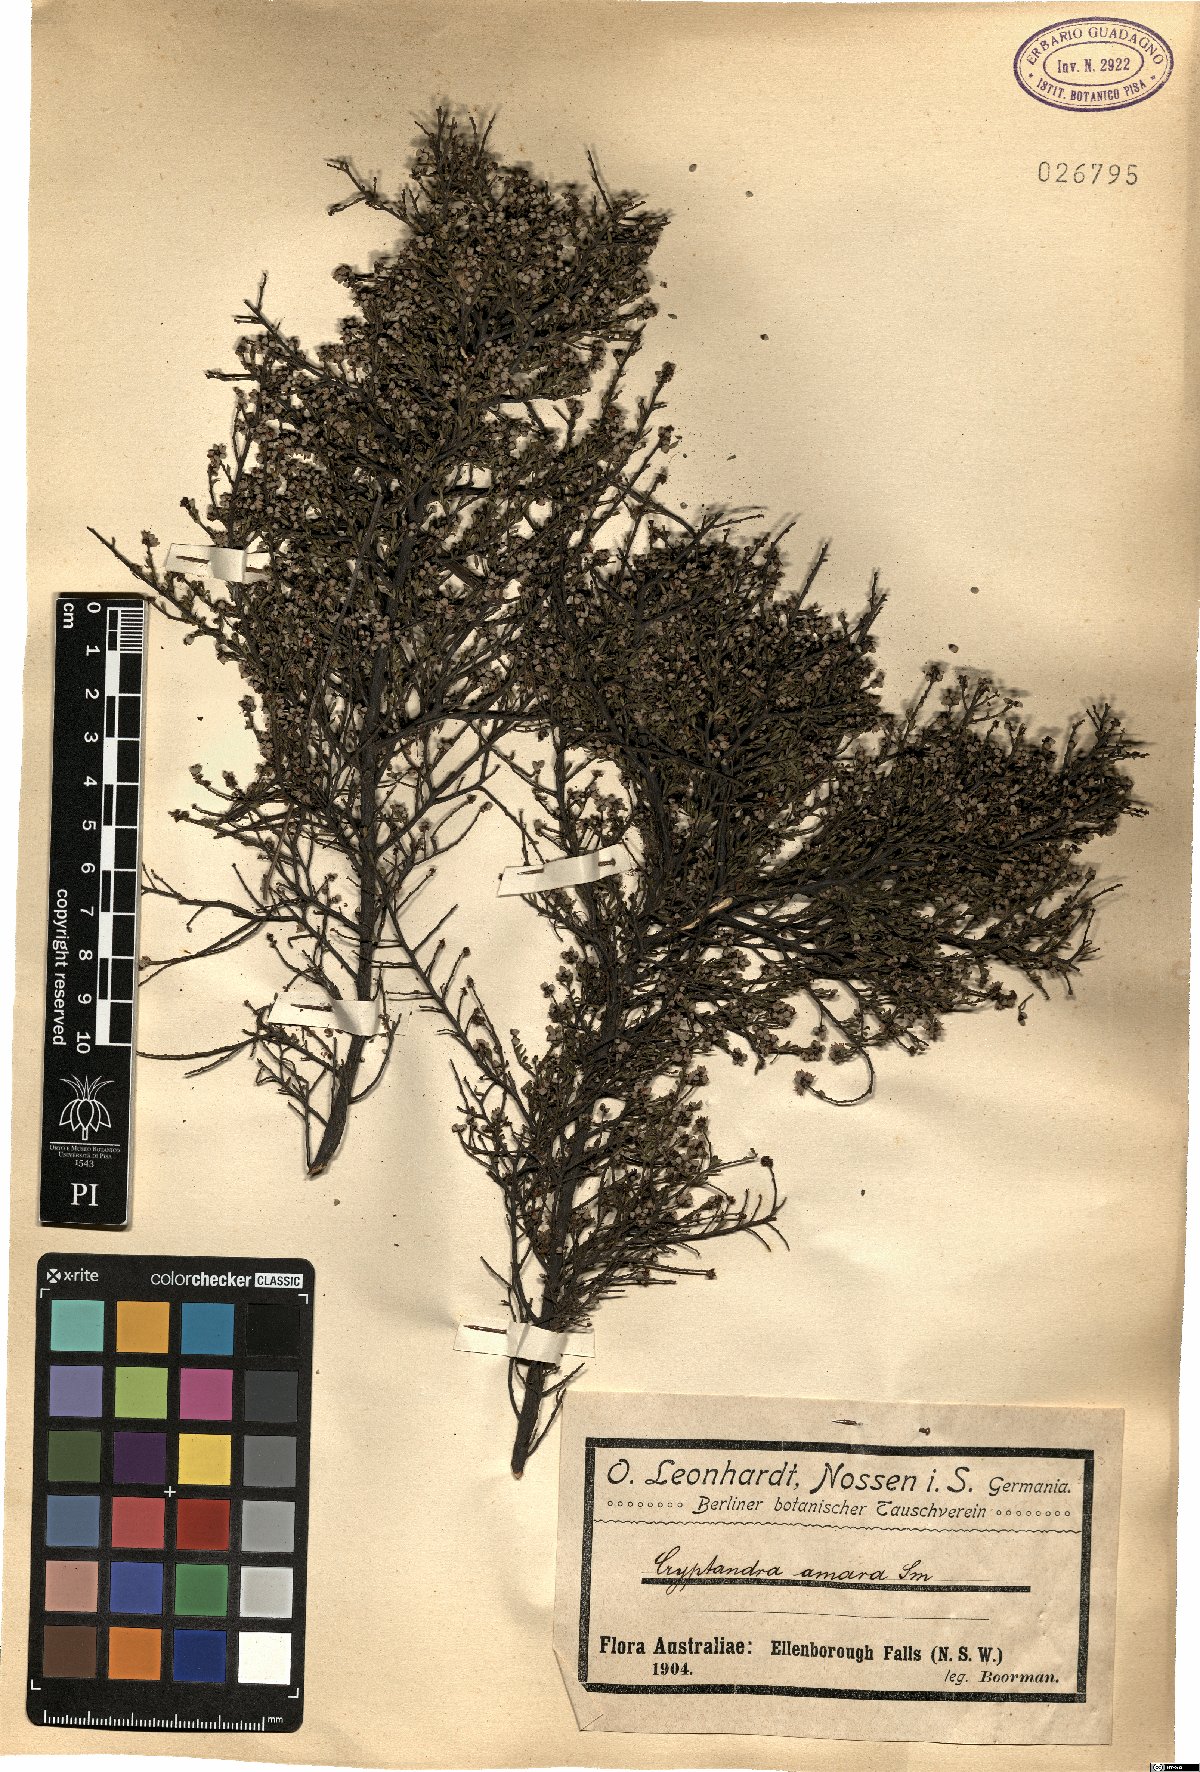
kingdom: Plantae
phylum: Tracheophyta
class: Magnoliopsida
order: Rosales
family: Rhamnaceae
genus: Cryptandra
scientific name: Cryptandra amara
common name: Bitter cryptandra
